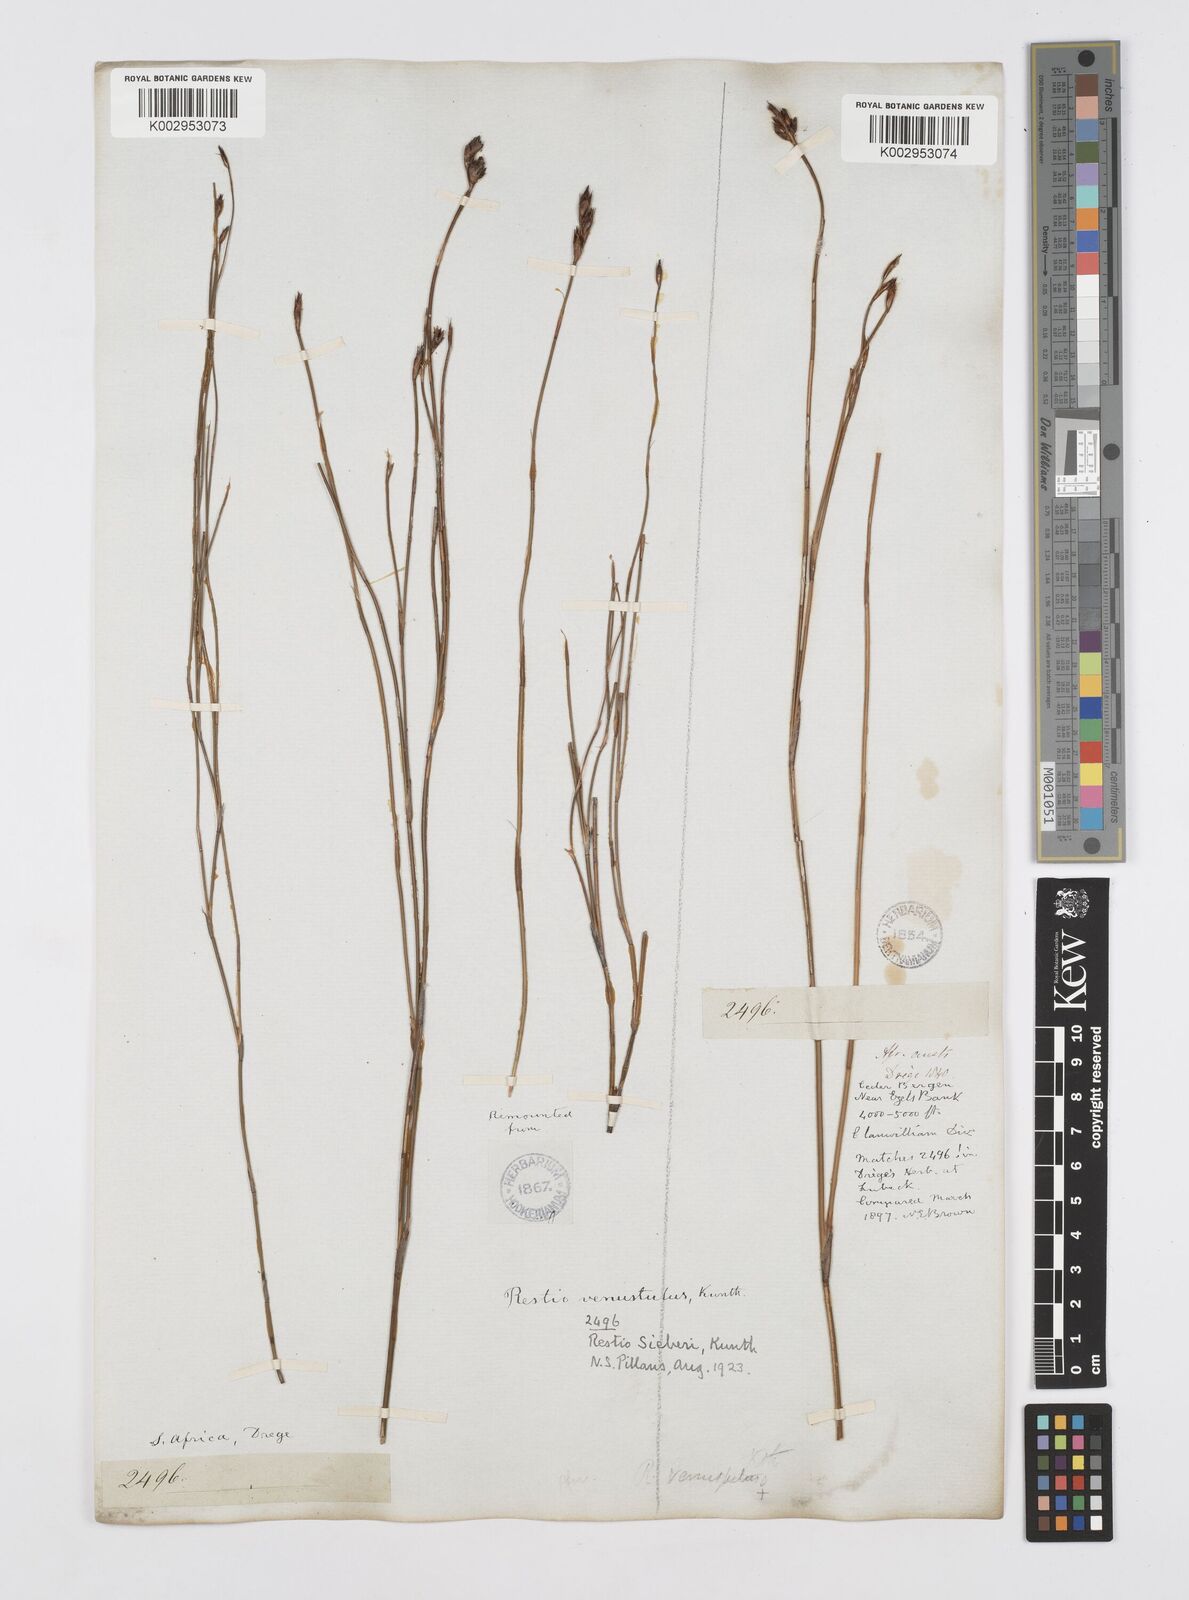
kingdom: Plantae
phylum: Tracheophyta
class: Liliopsida
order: Poales
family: Restionaceae
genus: Restio
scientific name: Restio sieberi
